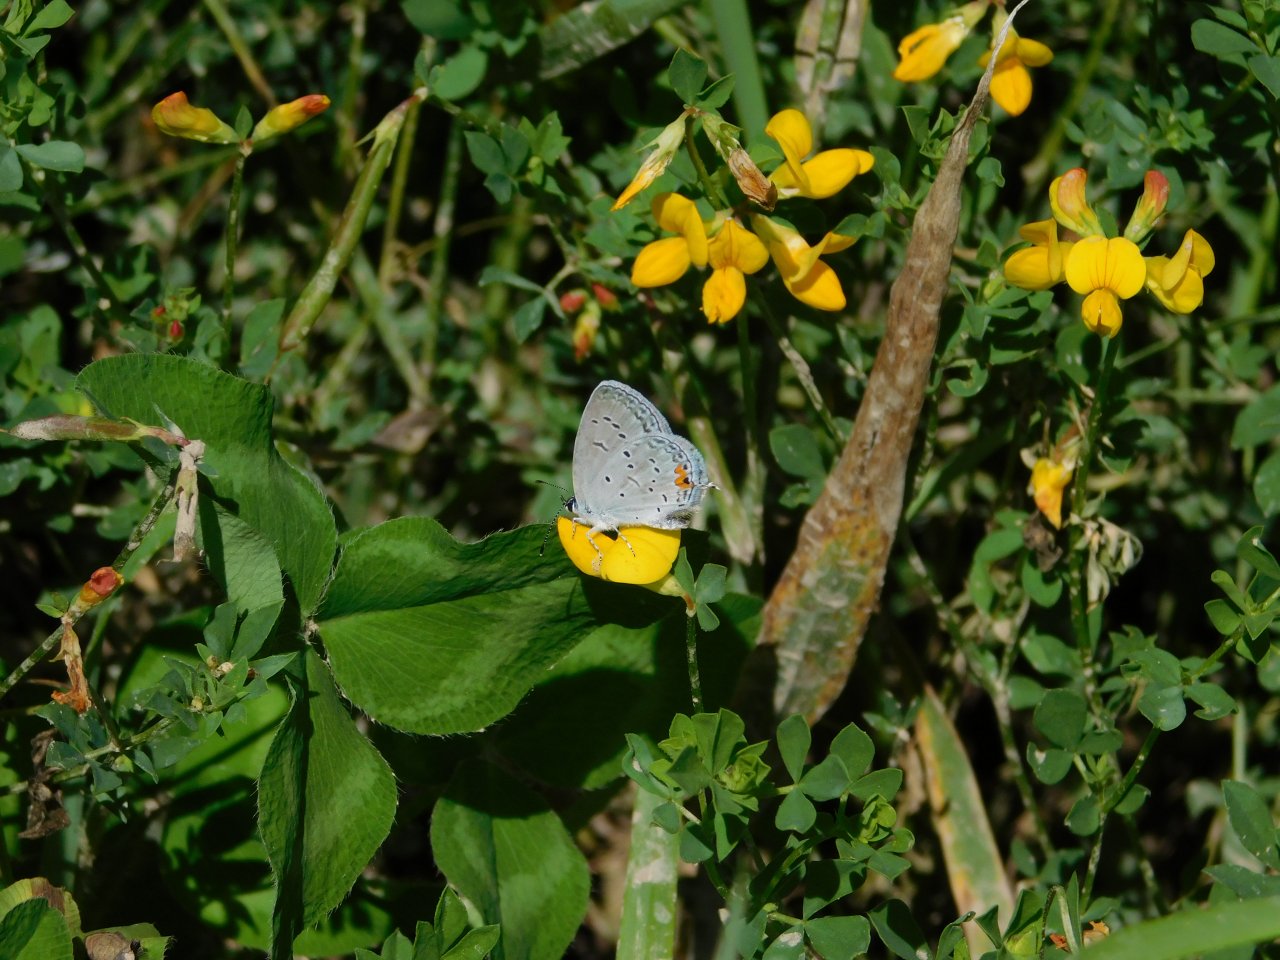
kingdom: Animalia
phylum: Arthropoda
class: Insecta
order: Lepidoptera
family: Lycaenidae
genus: Elkalyce
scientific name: Elkalyce comyntas
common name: Eastern Tailed-Blue
